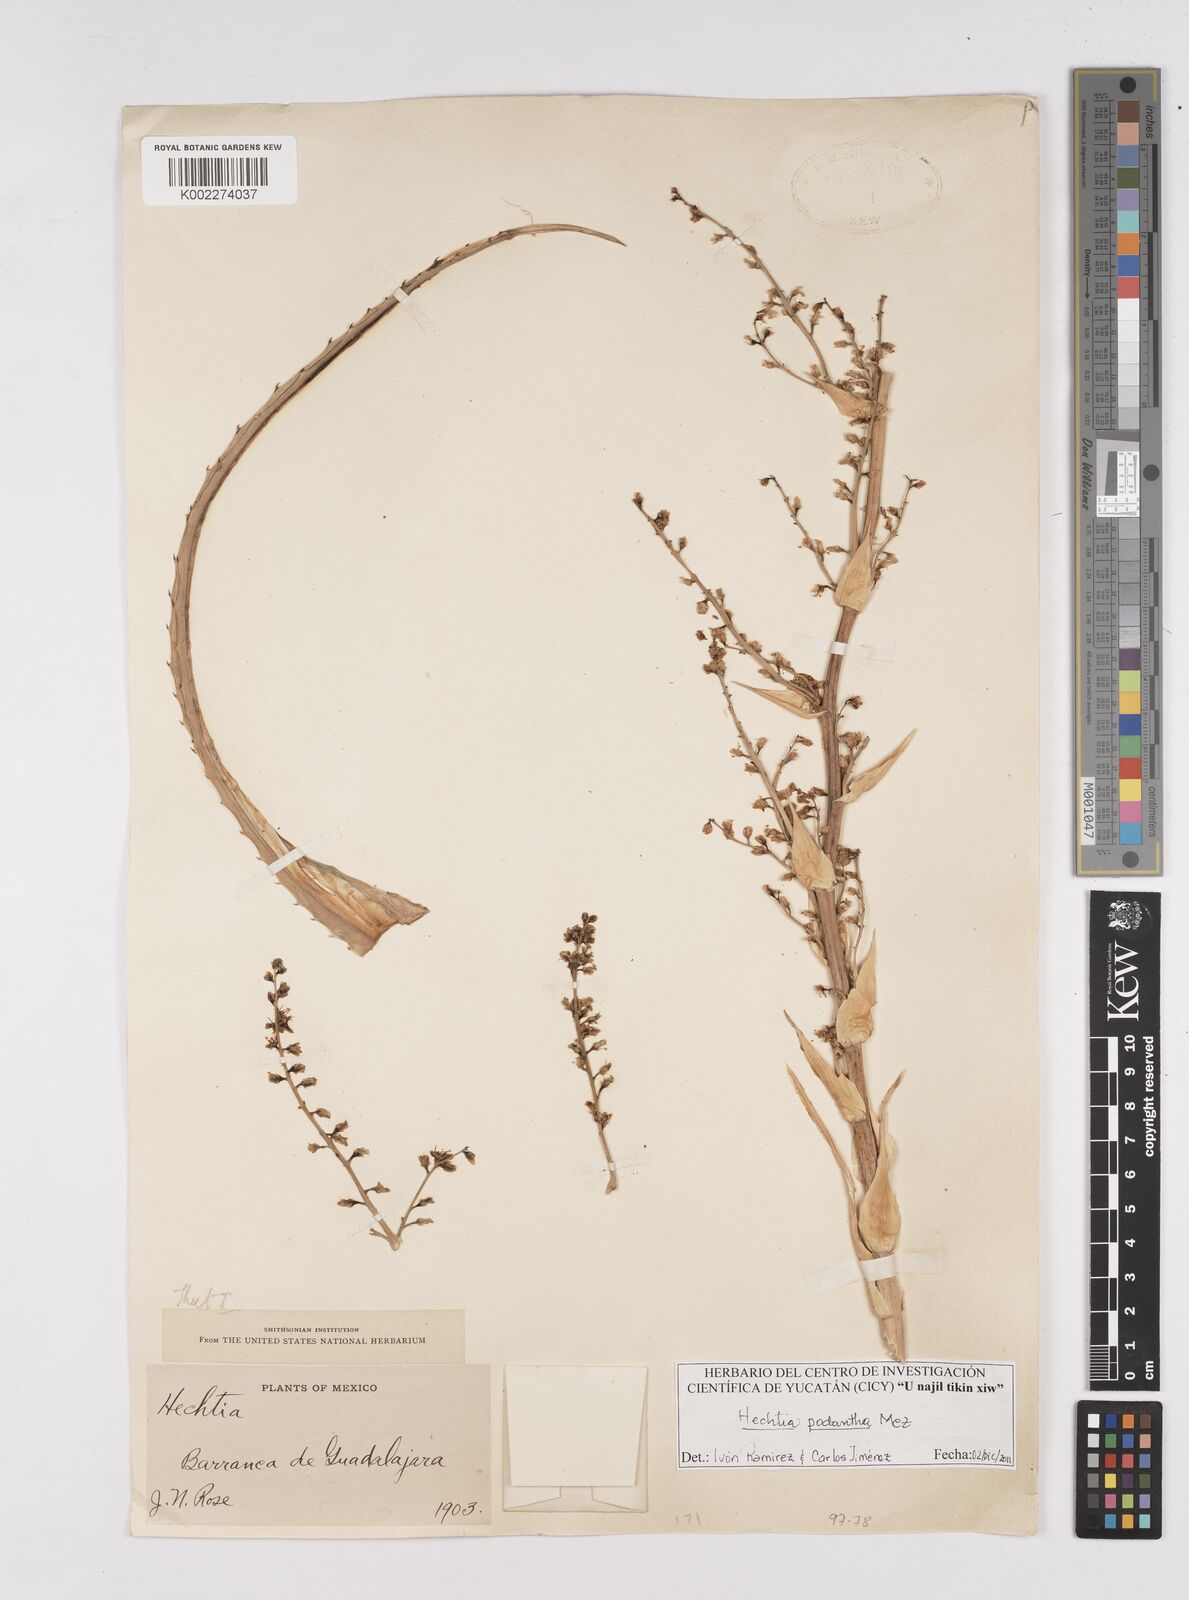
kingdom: Plantae
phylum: Tracheophyta
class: Liliopsida
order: Poales
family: Bromeliaceae
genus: Hechtia
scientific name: Hechtia podantha
